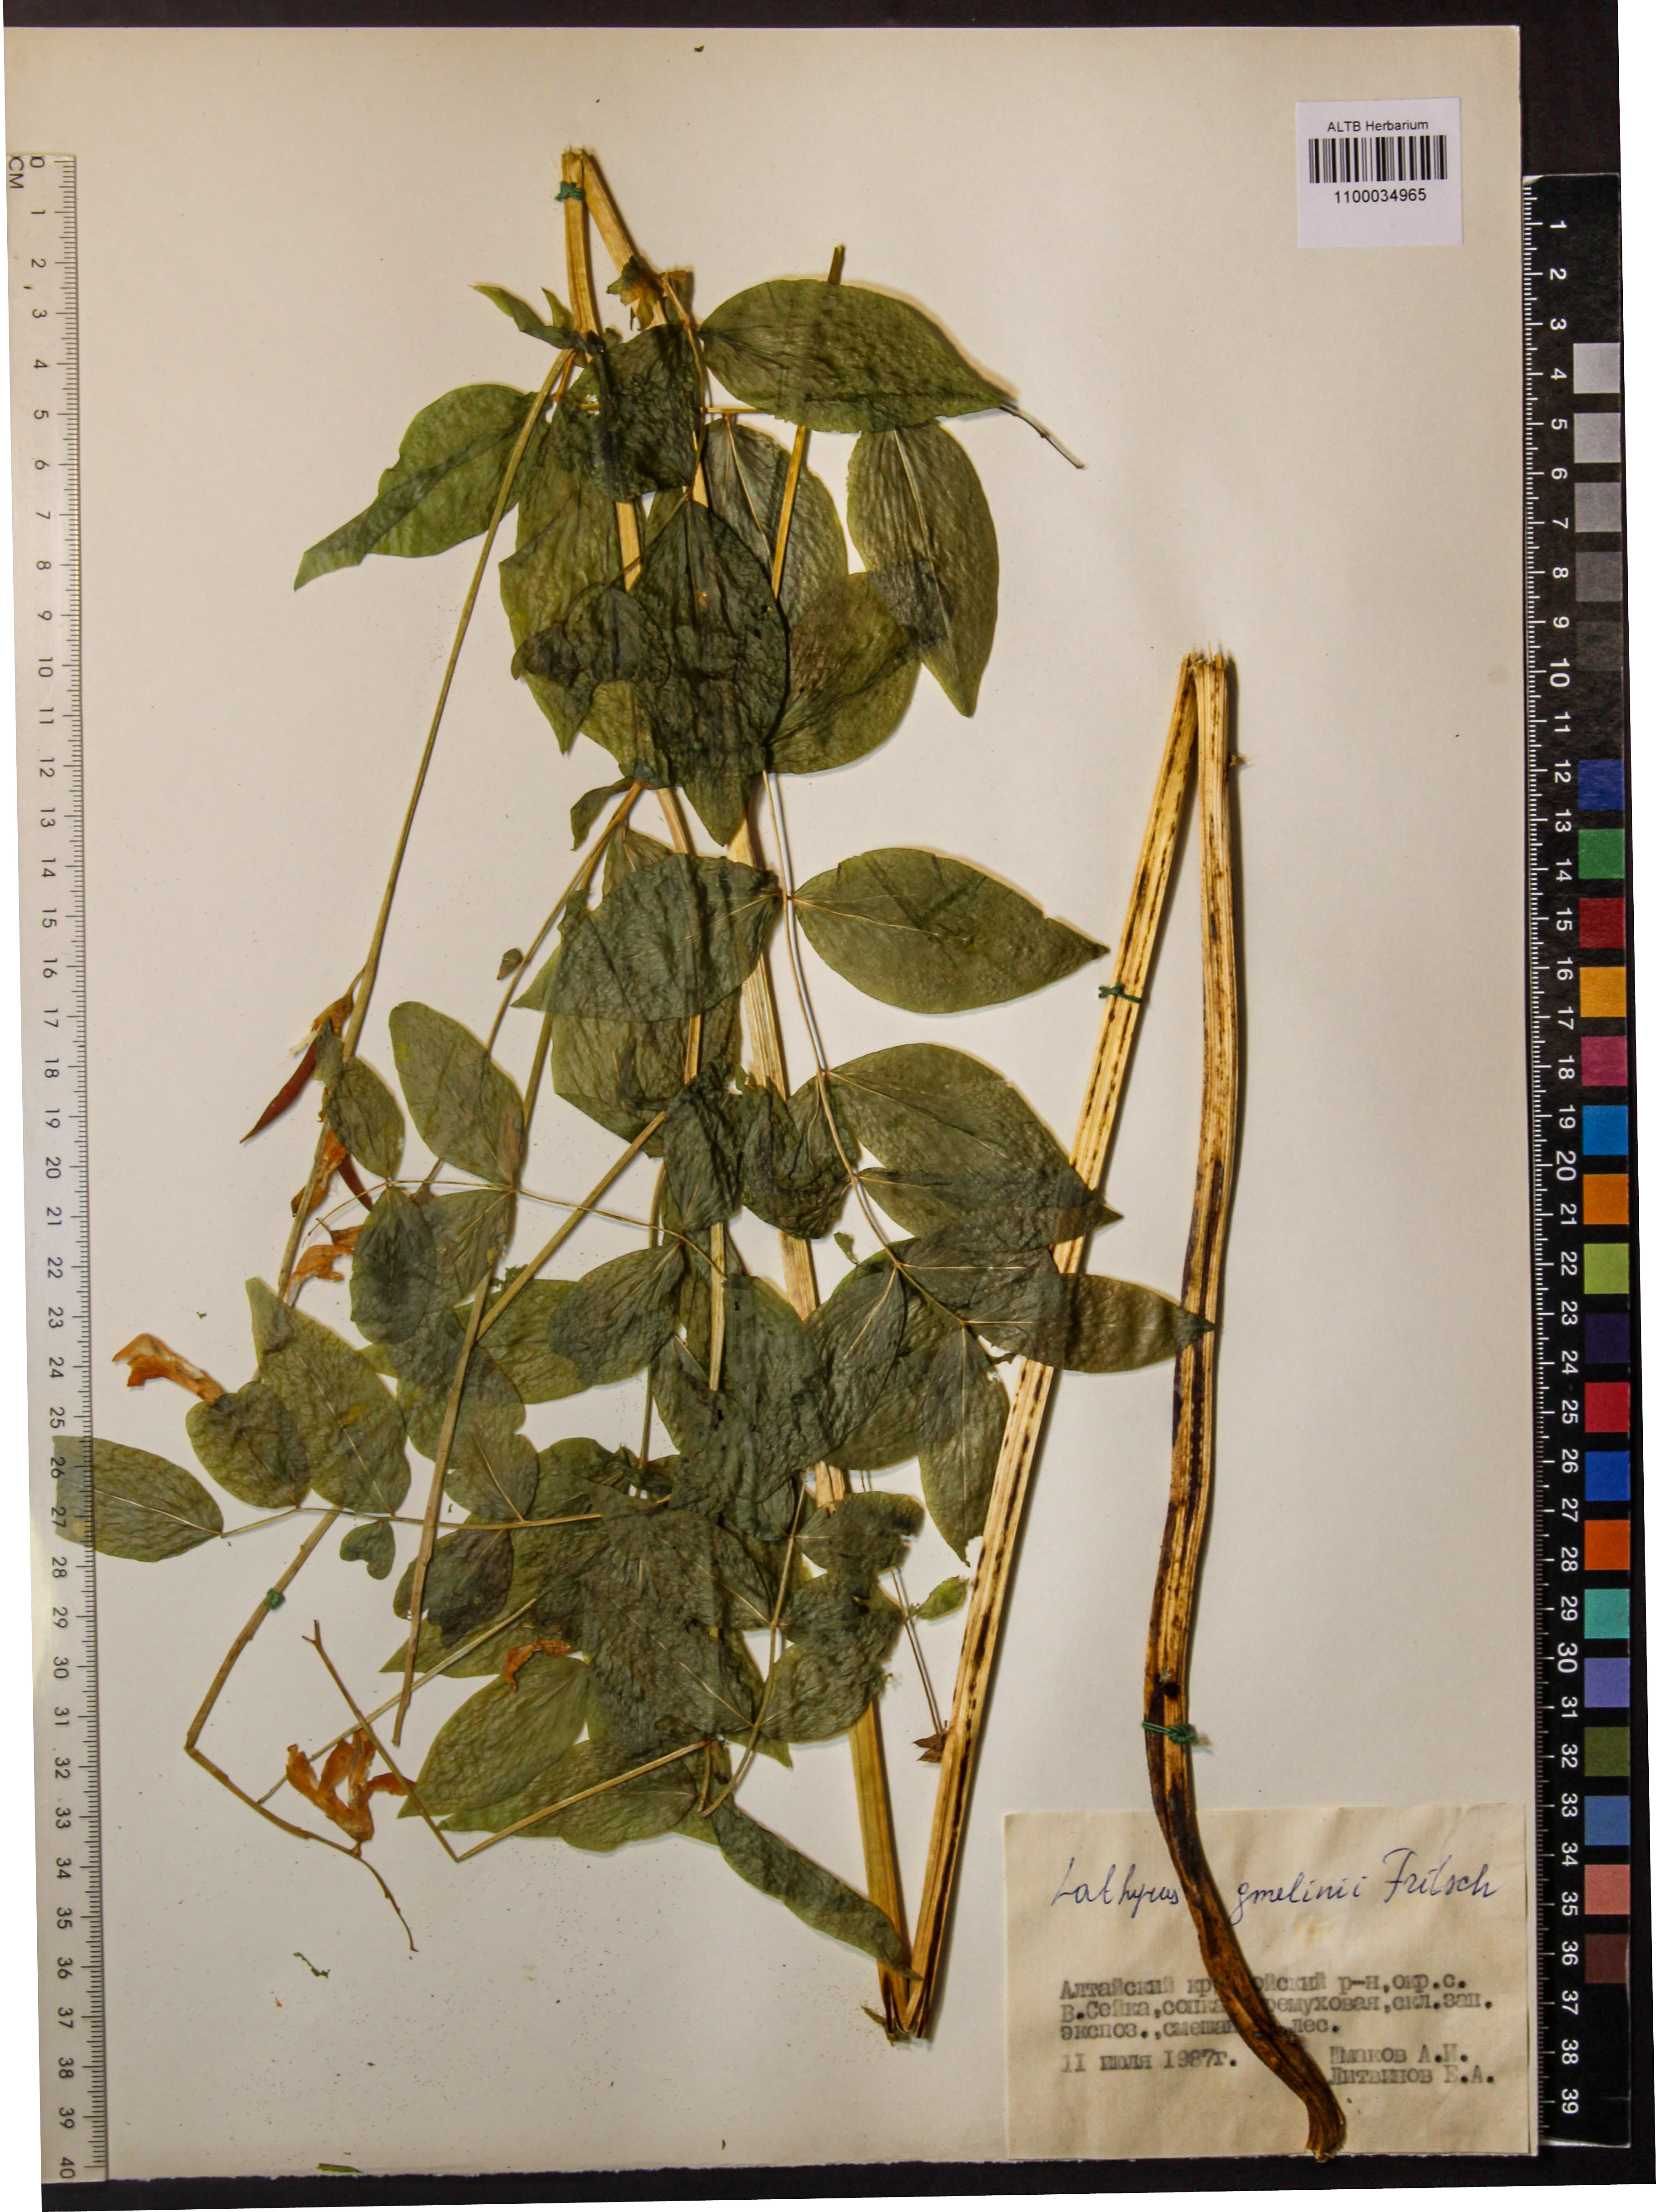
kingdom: Plantae
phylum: Tracheophyta
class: Magnoliopsida
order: Fabales
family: Fabaceae
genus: Lathyrus
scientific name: Lathyrus gmelinii
